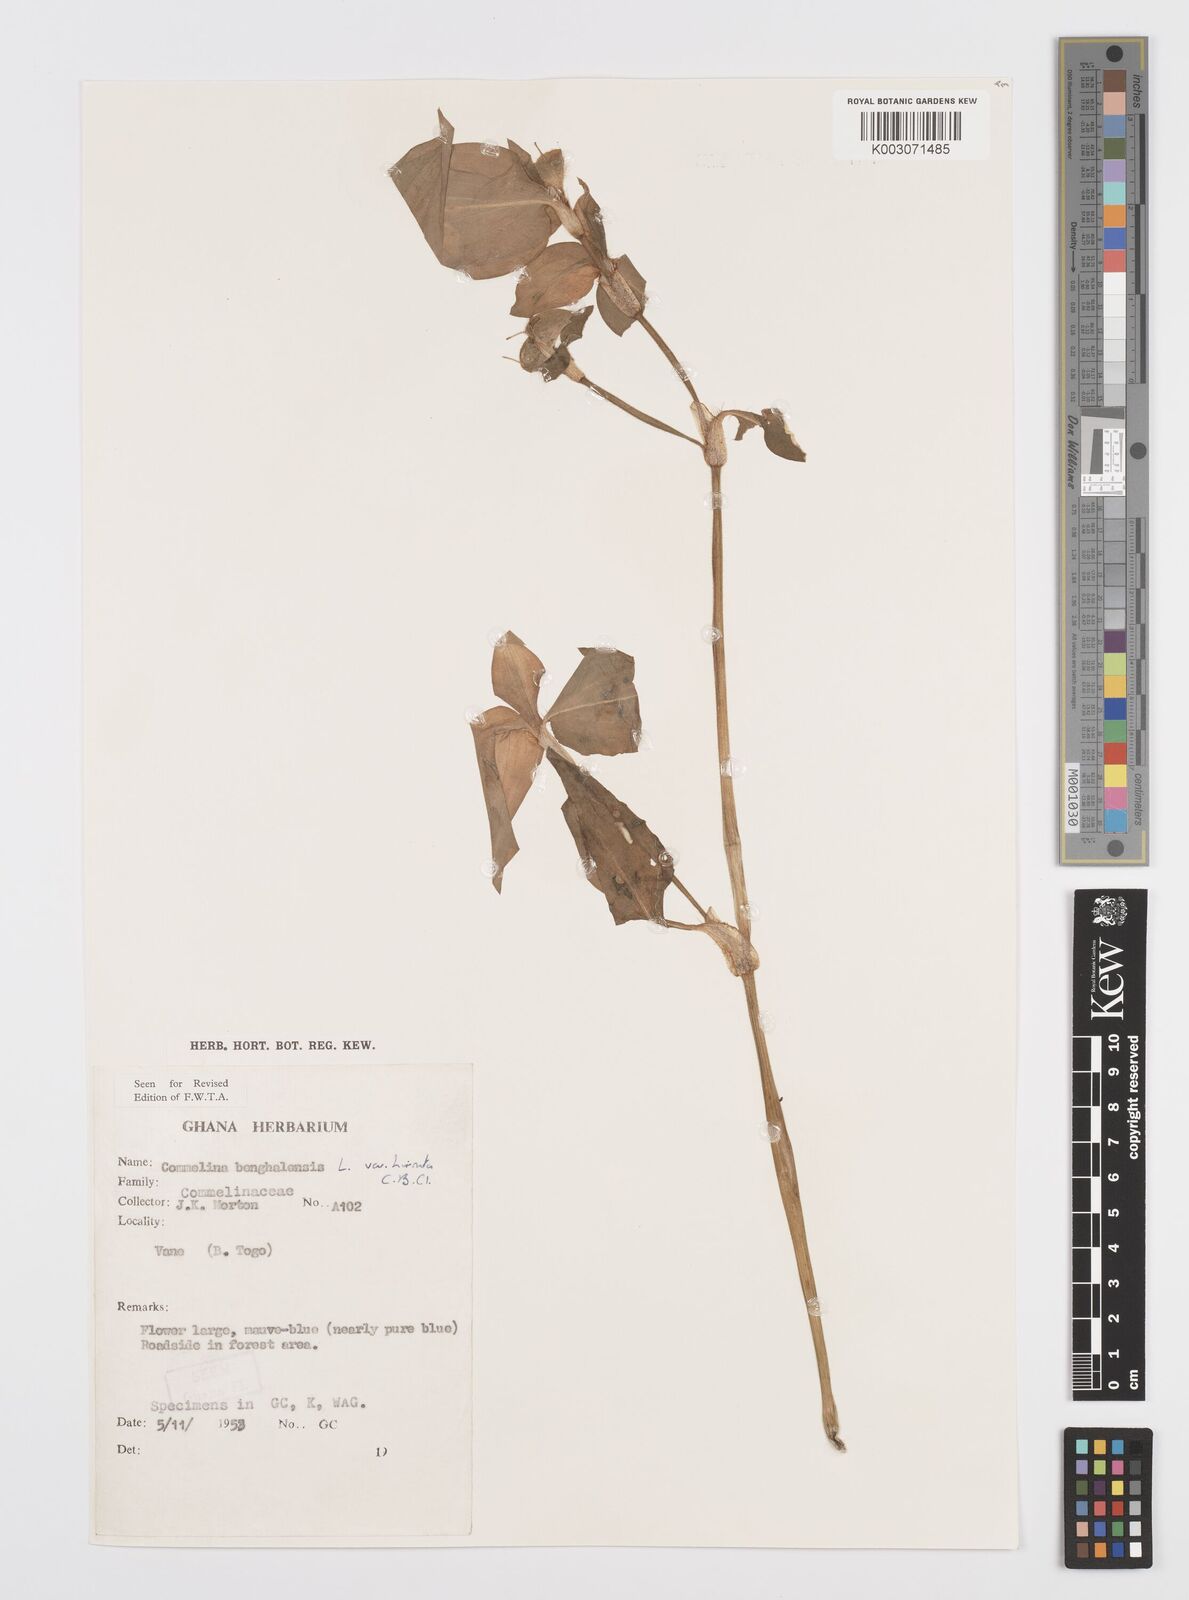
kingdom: Plantae
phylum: Tracheophyta
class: Liliopsida
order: Commelinales
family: Commelinaceae
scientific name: Commelinaceae
